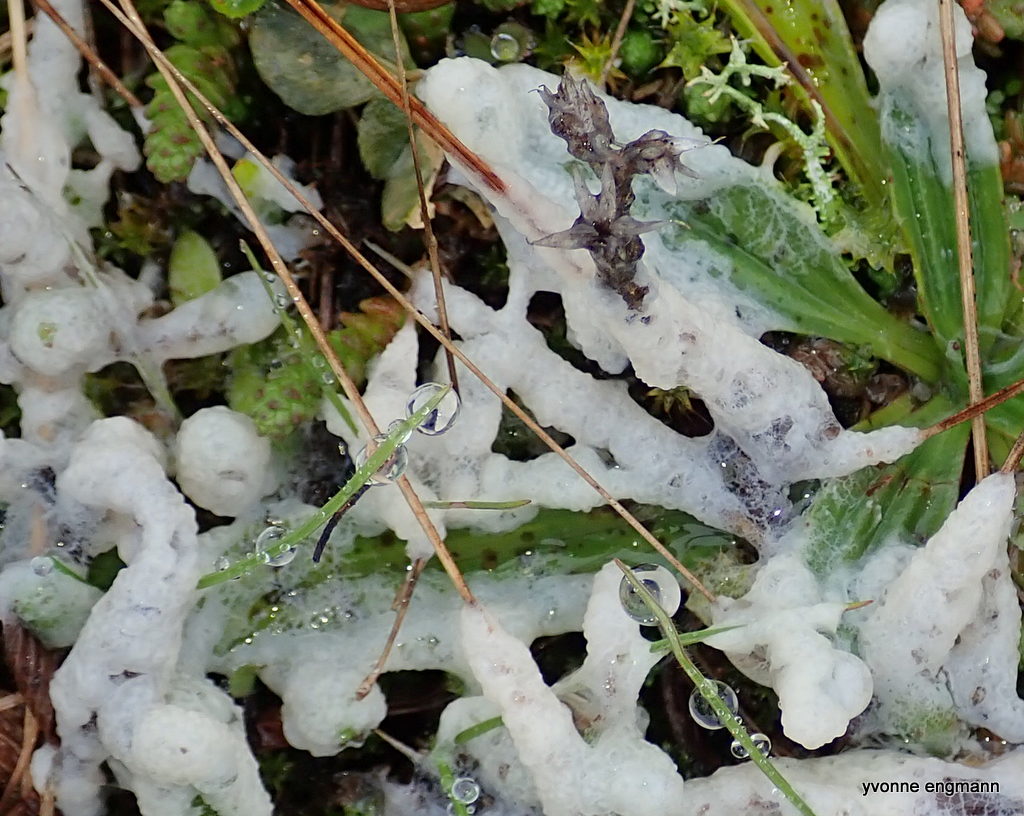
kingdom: Protozoa
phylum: Mycetozoa
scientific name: Mycetozoa
